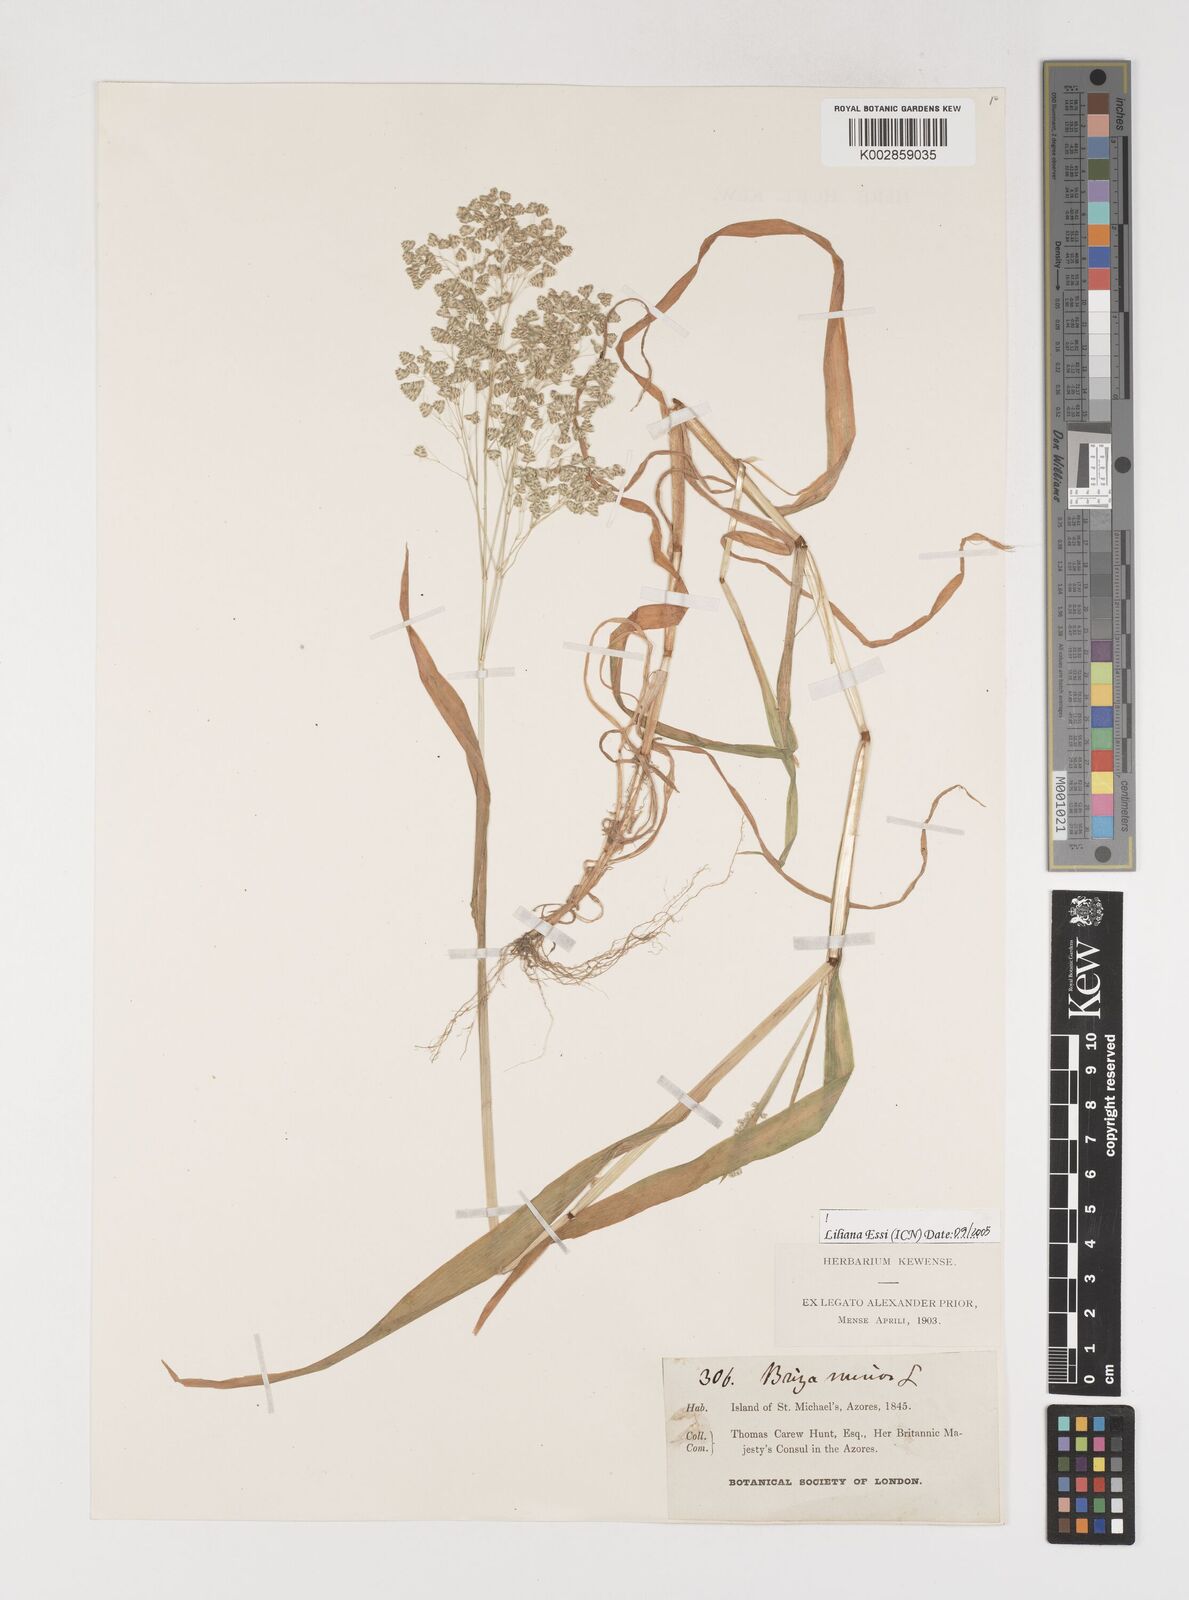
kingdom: Plantae
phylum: Tracheophyta
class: Liliopsida
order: Poales
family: Poaceae
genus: Briza
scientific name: Briza minor
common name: Lesser quaking-grass
